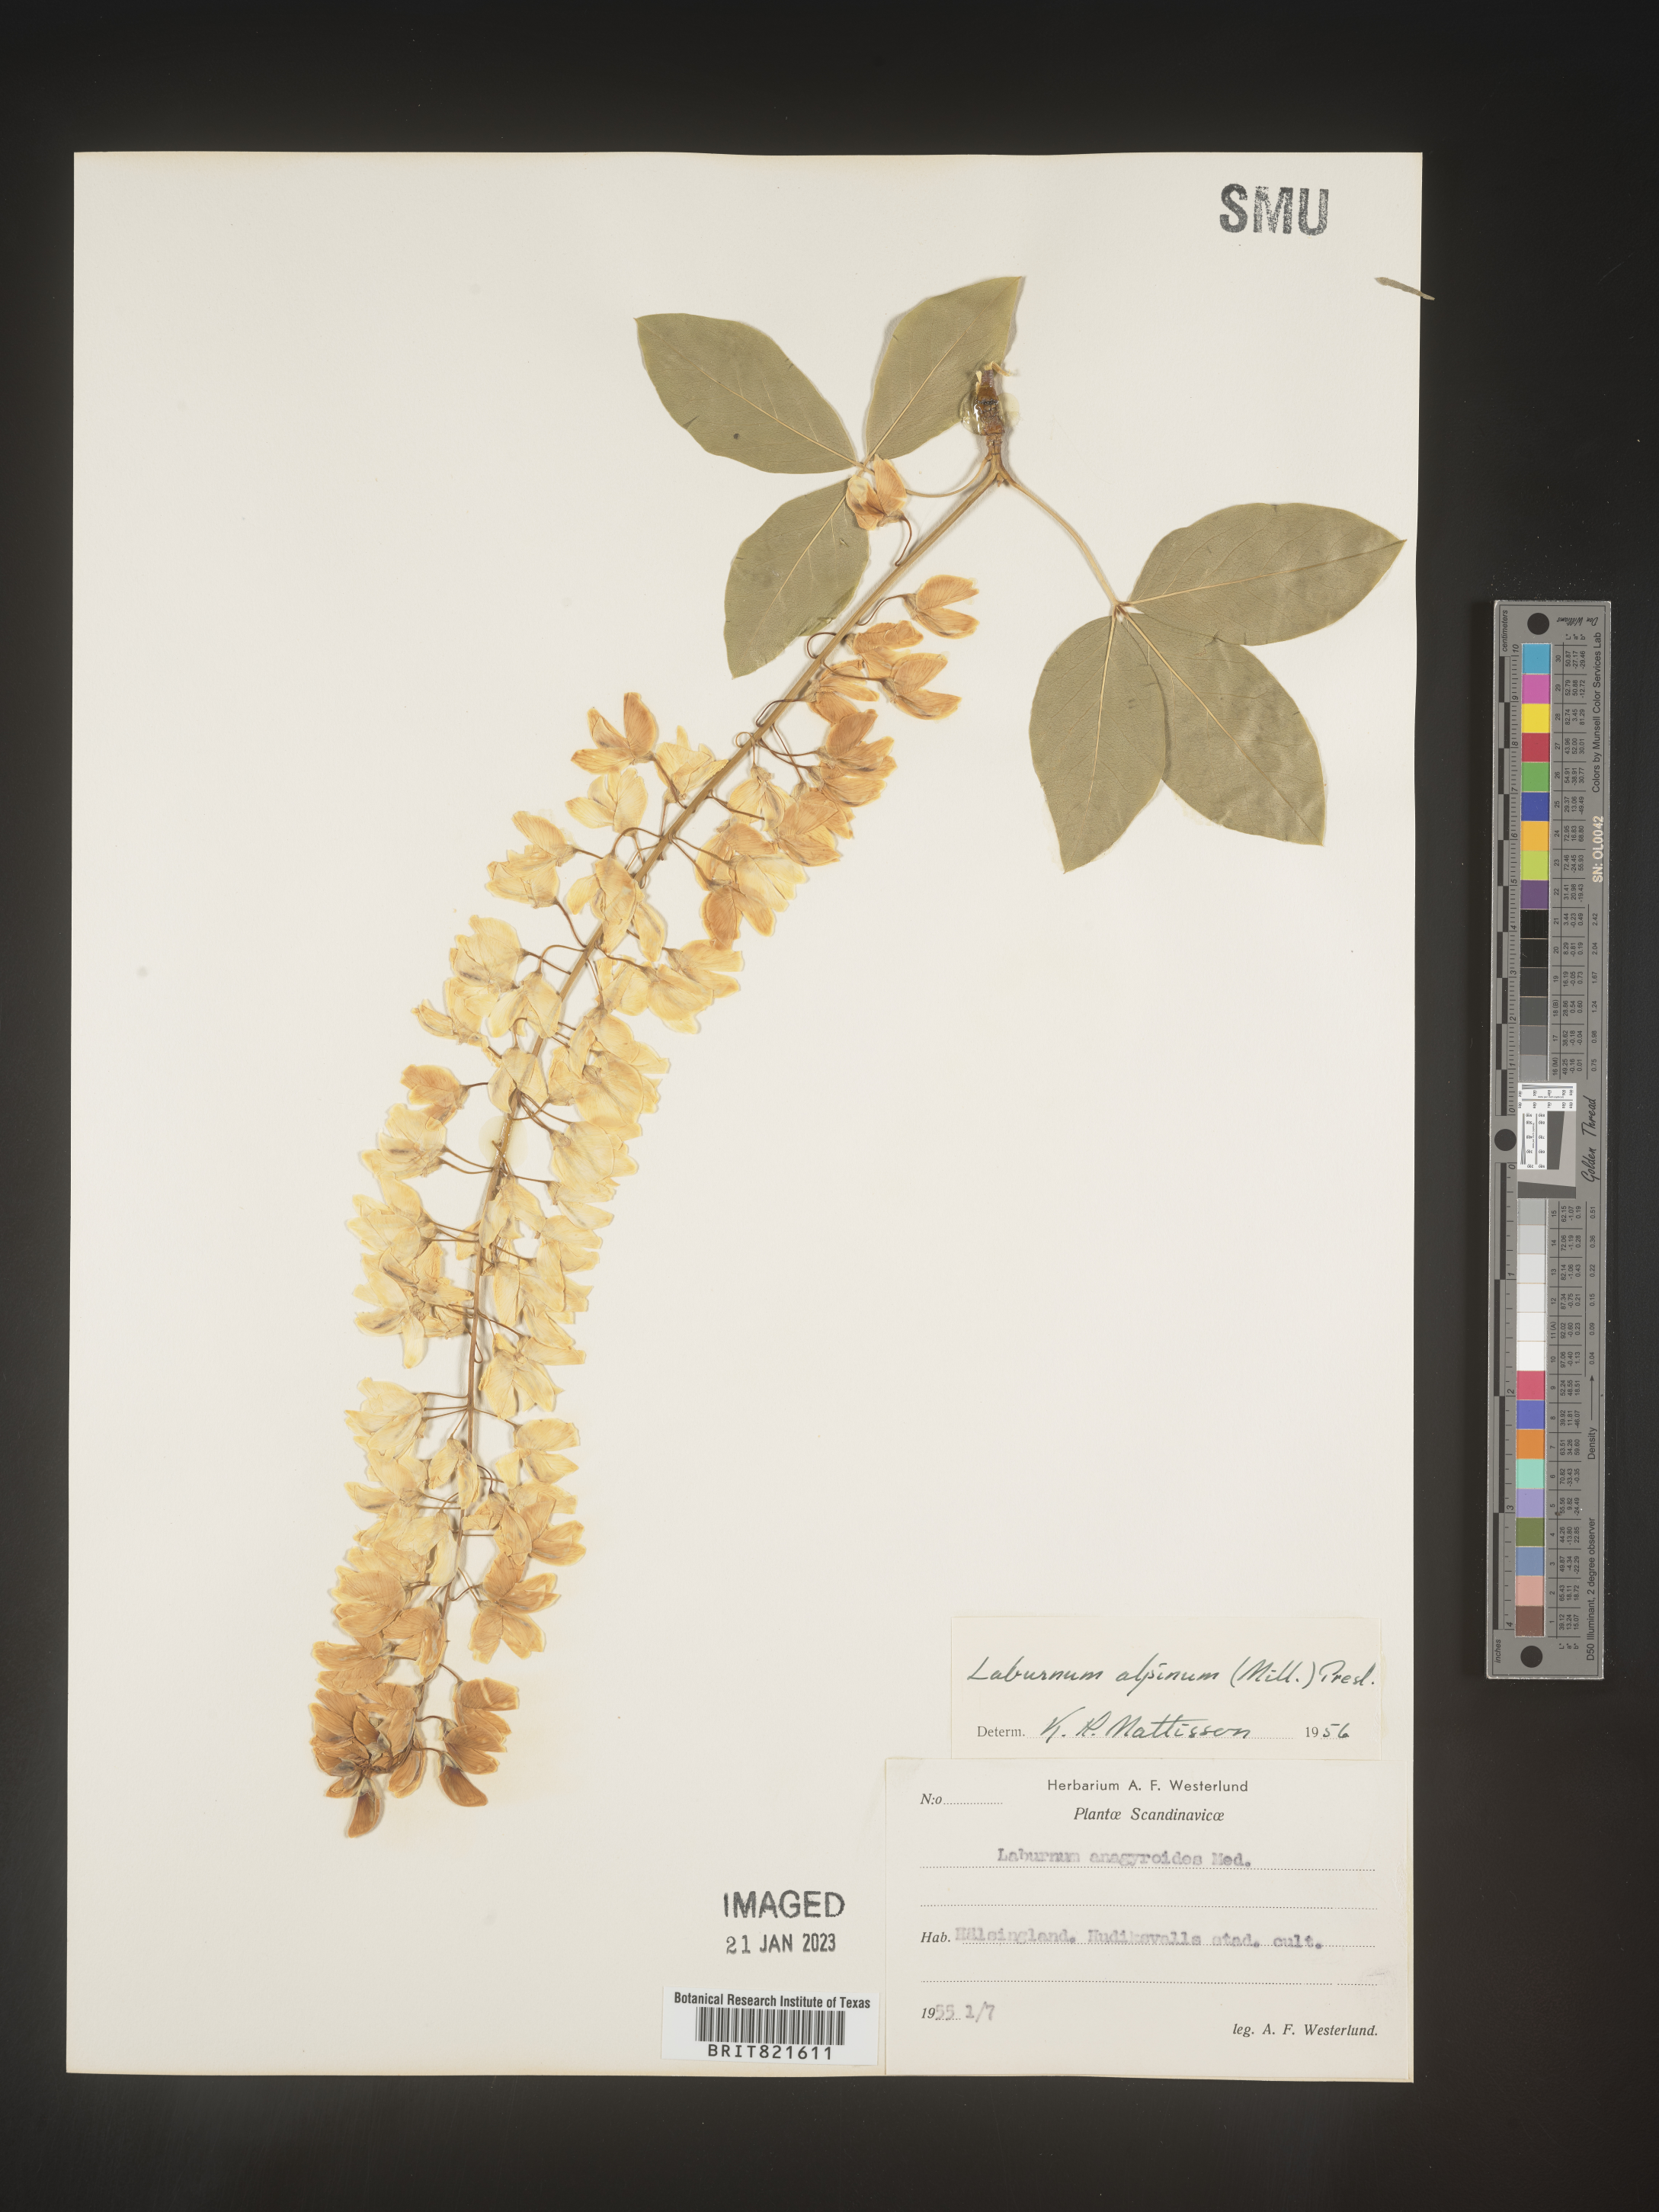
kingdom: Plantae
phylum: Tracheophyta
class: Magnoliopsida
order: Fabales
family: Fabaceae
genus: Laburnum
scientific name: Laburnum
